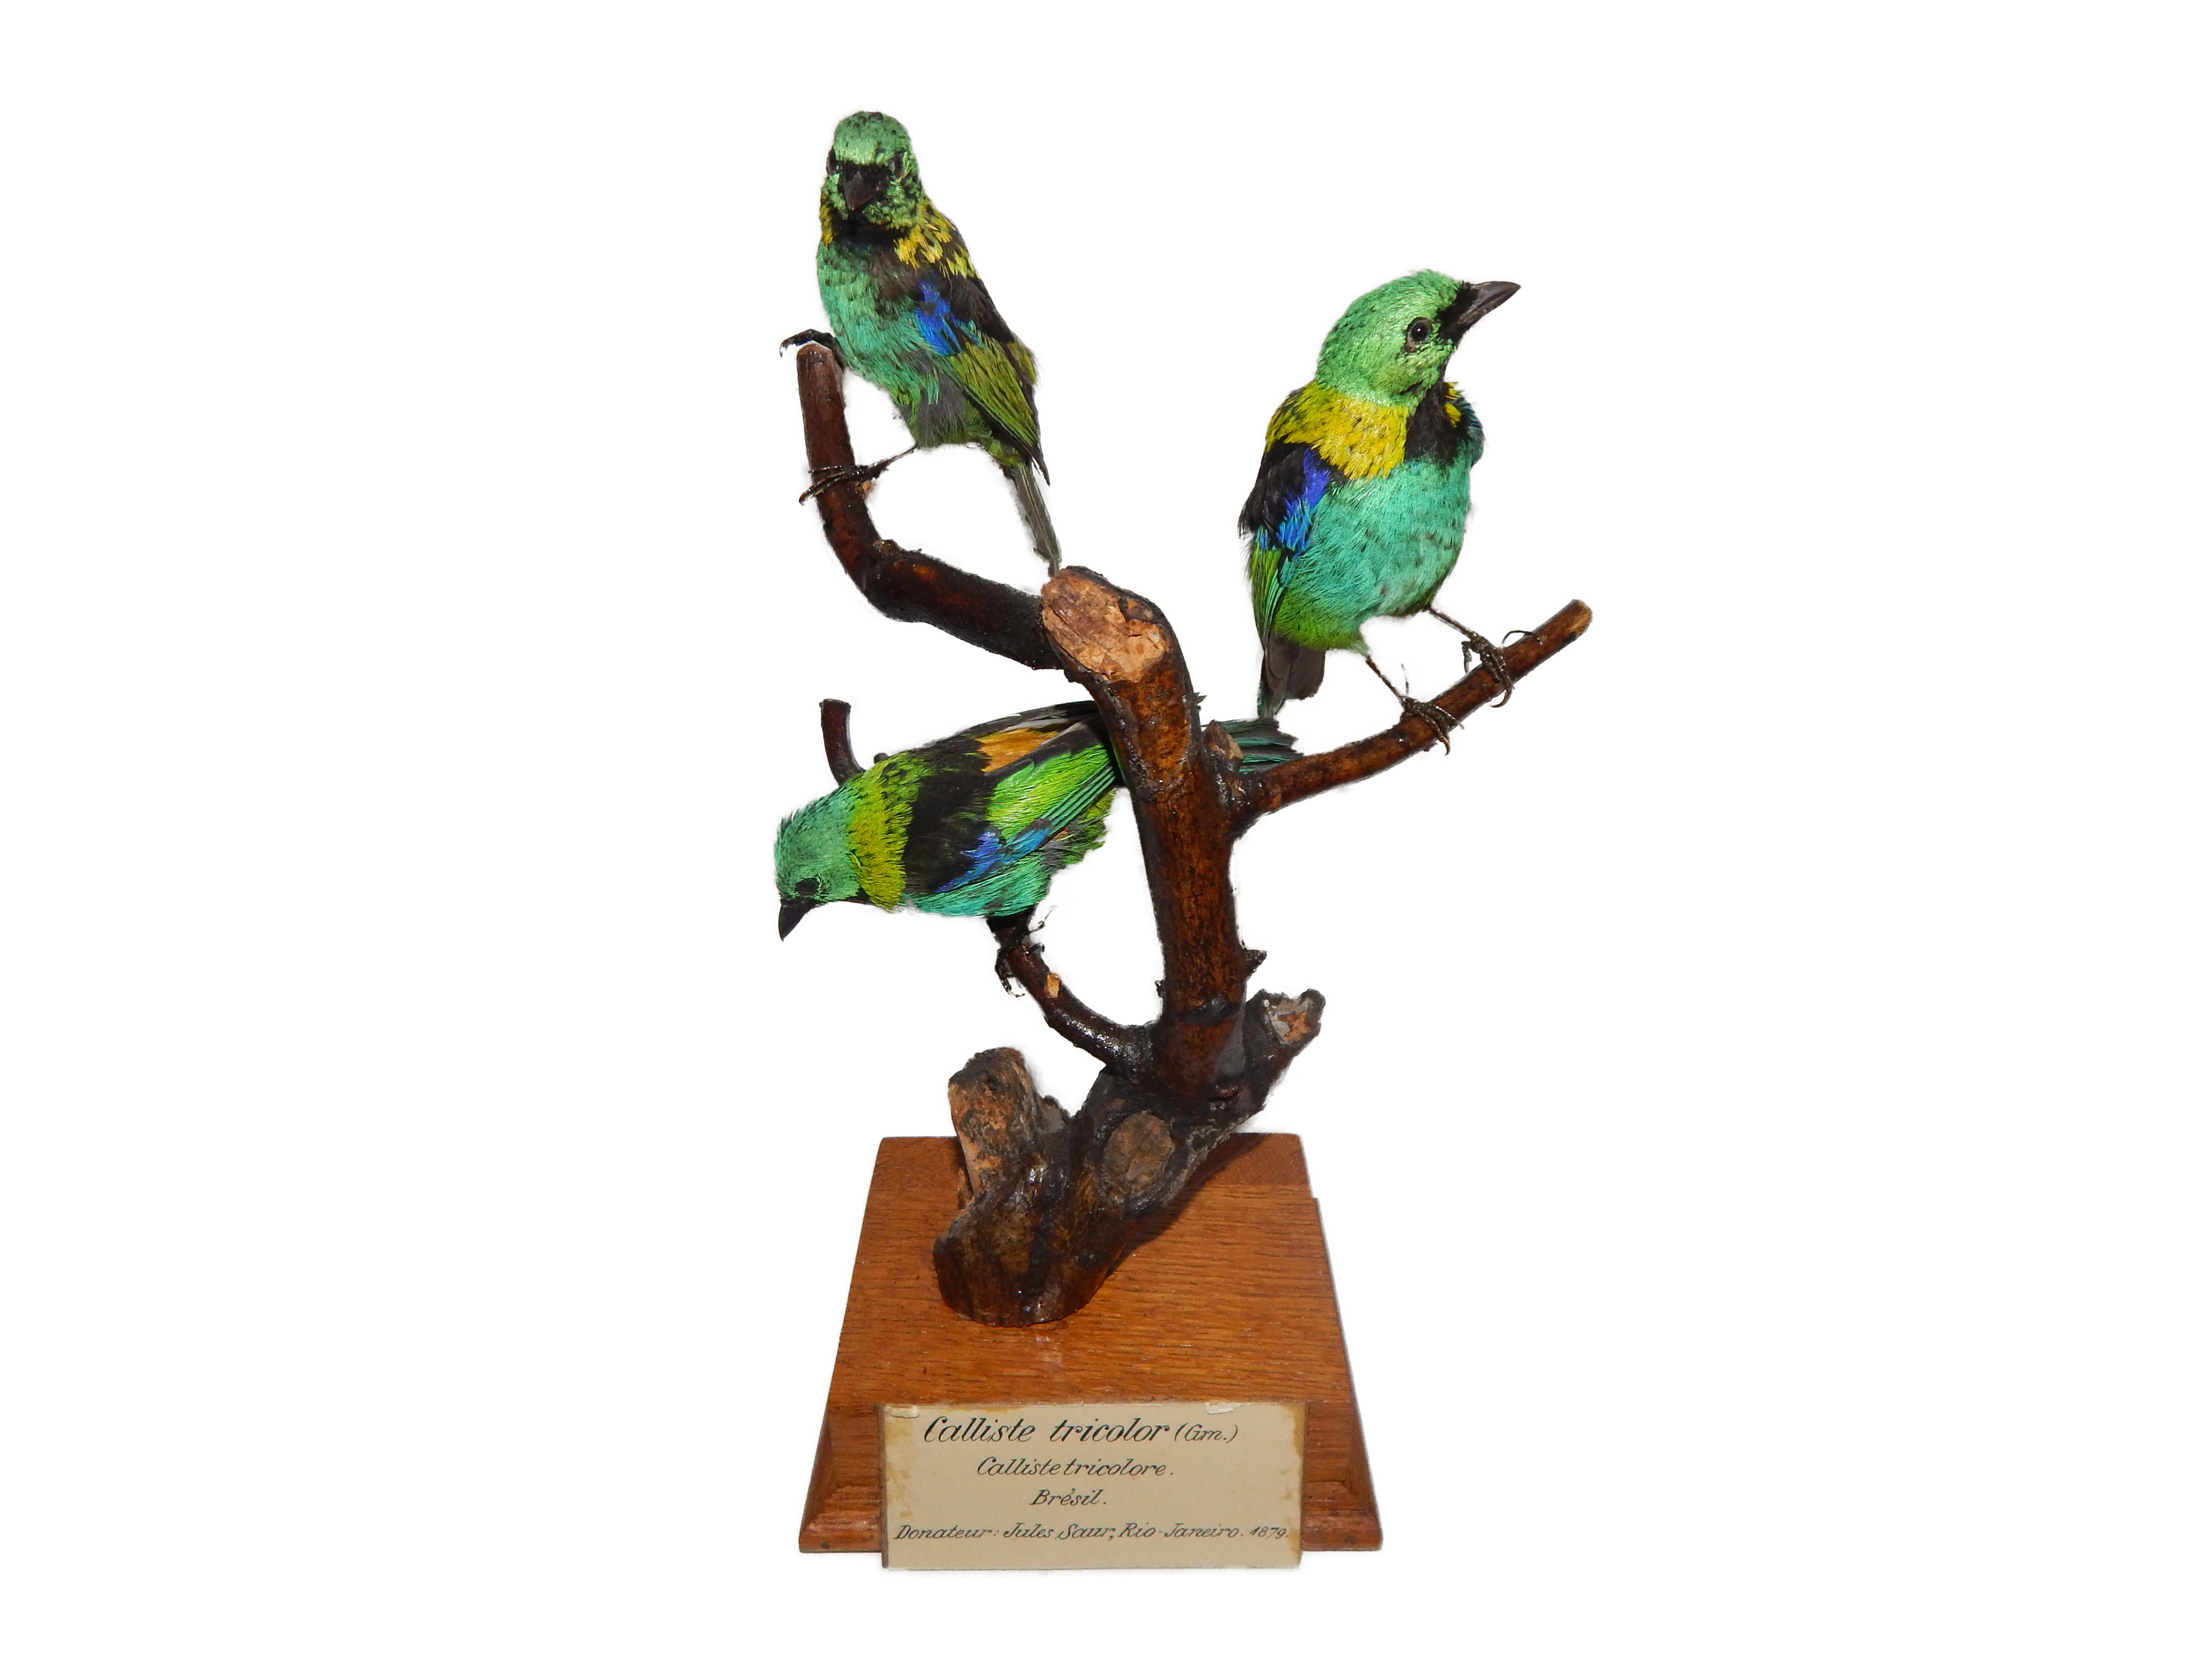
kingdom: Animalia
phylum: Chordata
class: Aves
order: Passeriformes
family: Thraupidae
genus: Tangara
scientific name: Tangara seledon
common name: Green-headed tanager
